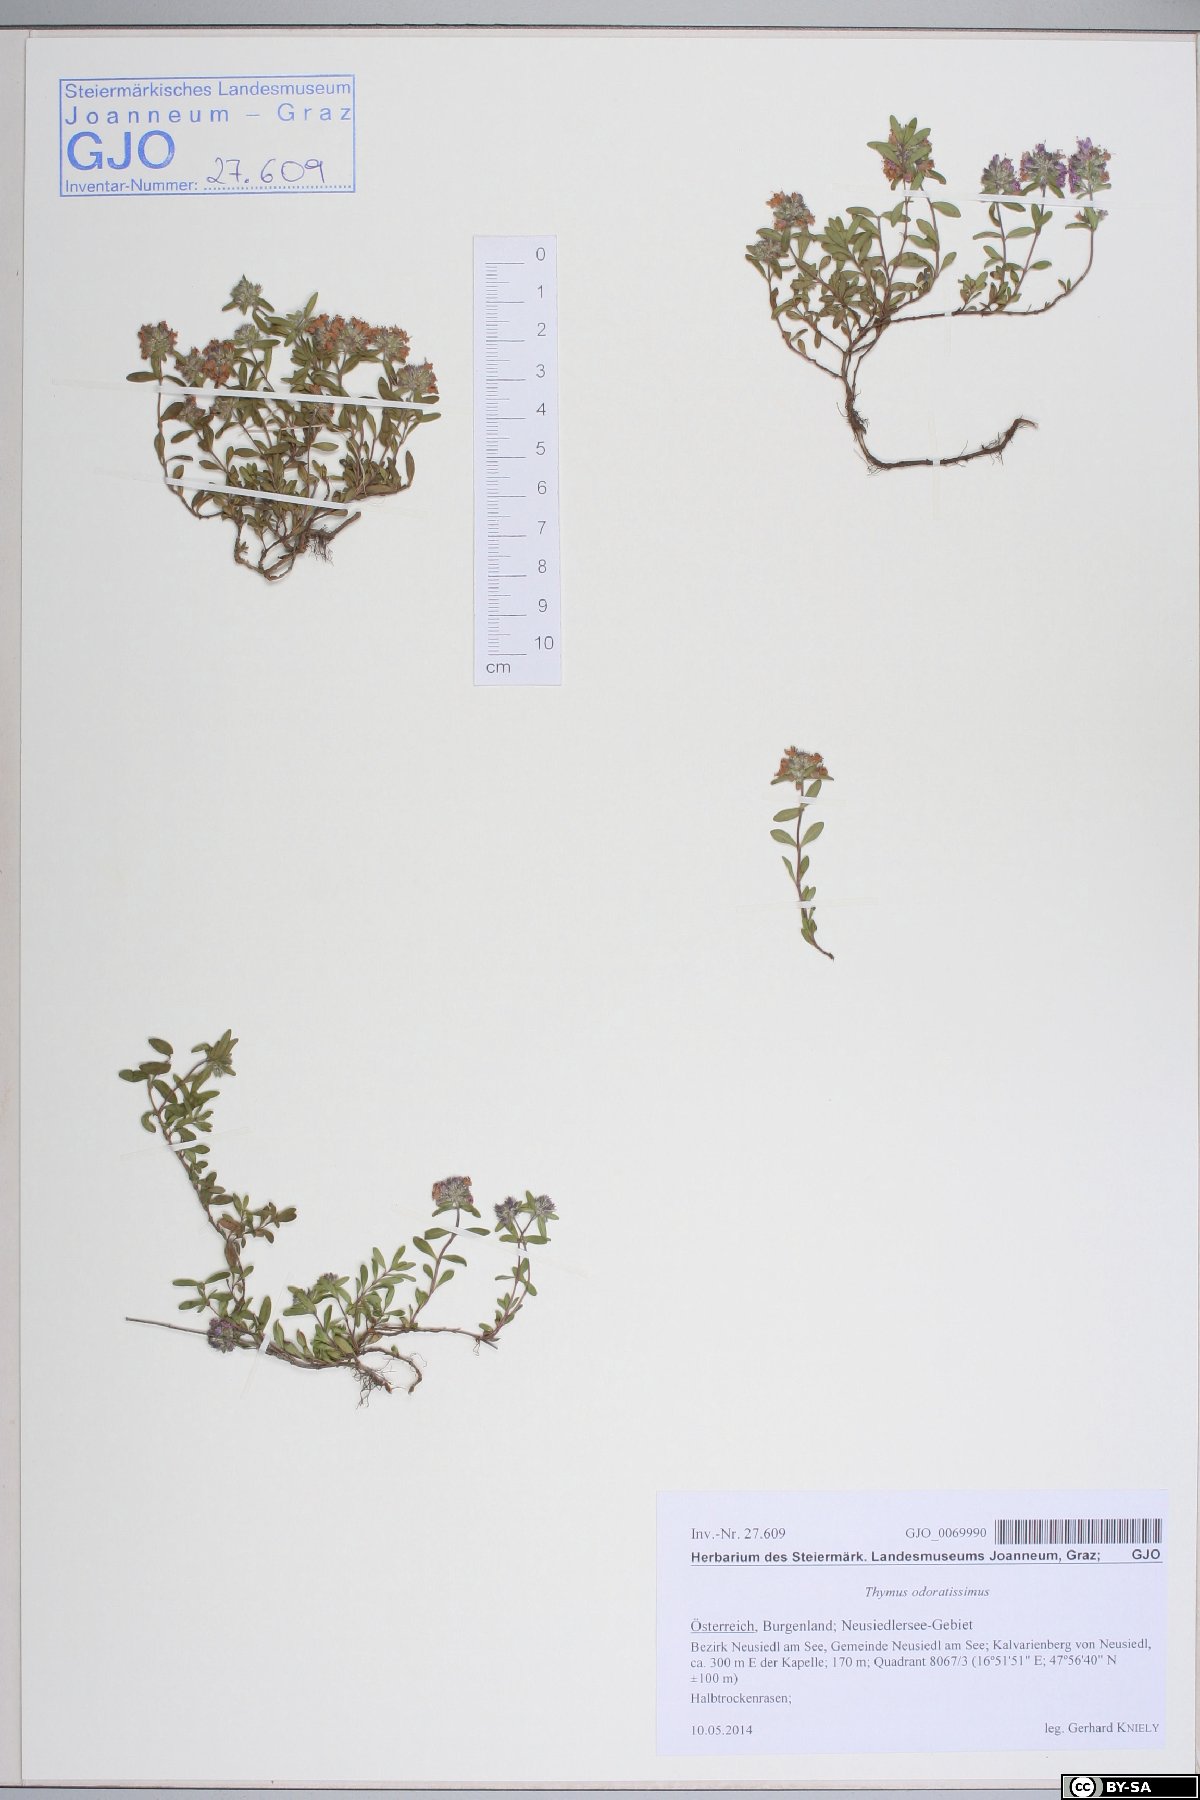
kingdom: Plantae
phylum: Tracheophyta
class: Magnoliopsida
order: Lamiales
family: Lamiaceae
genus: Thymus
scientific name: Thymus odoratissimus
